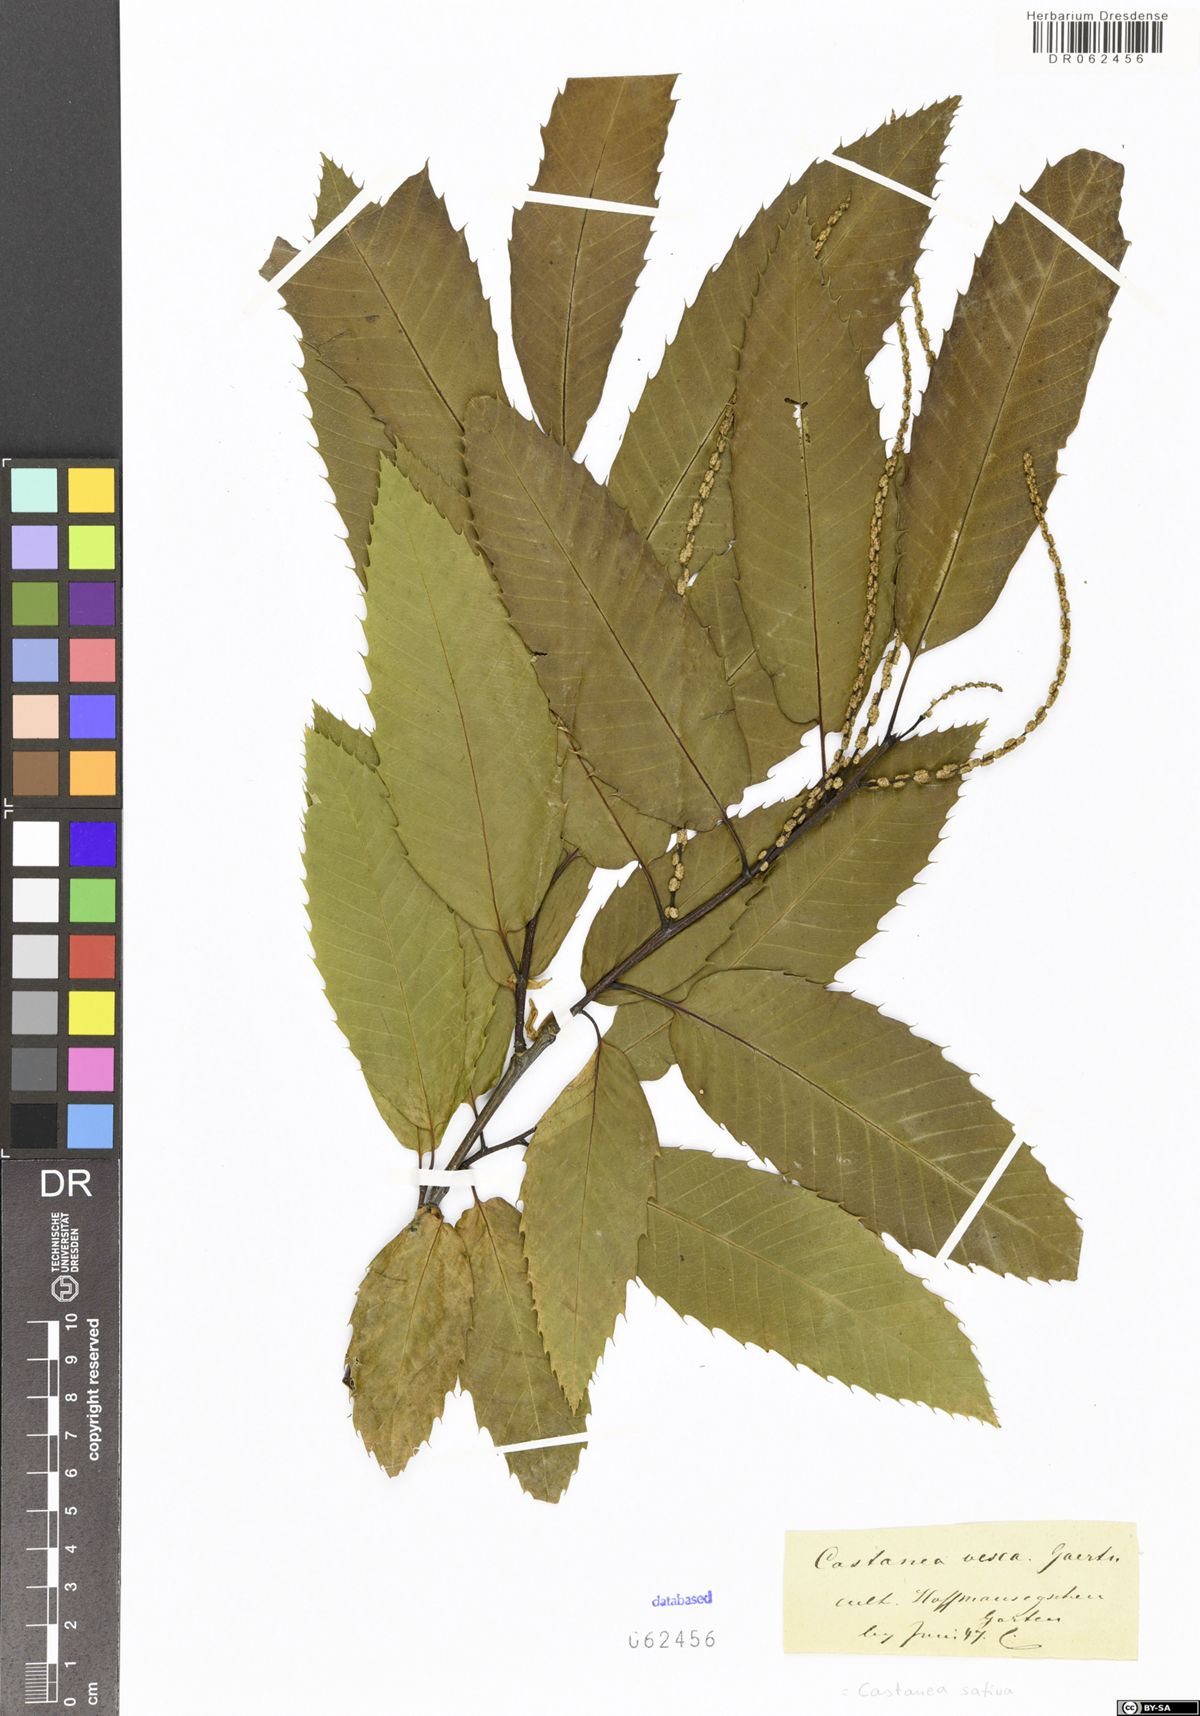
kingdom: Plantae
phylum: Tracheophyta
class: Magnoliopsida
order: Fagales
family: Fagaceae
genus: Castanea
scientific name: Castanea sativa
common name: Sweet chestnut
